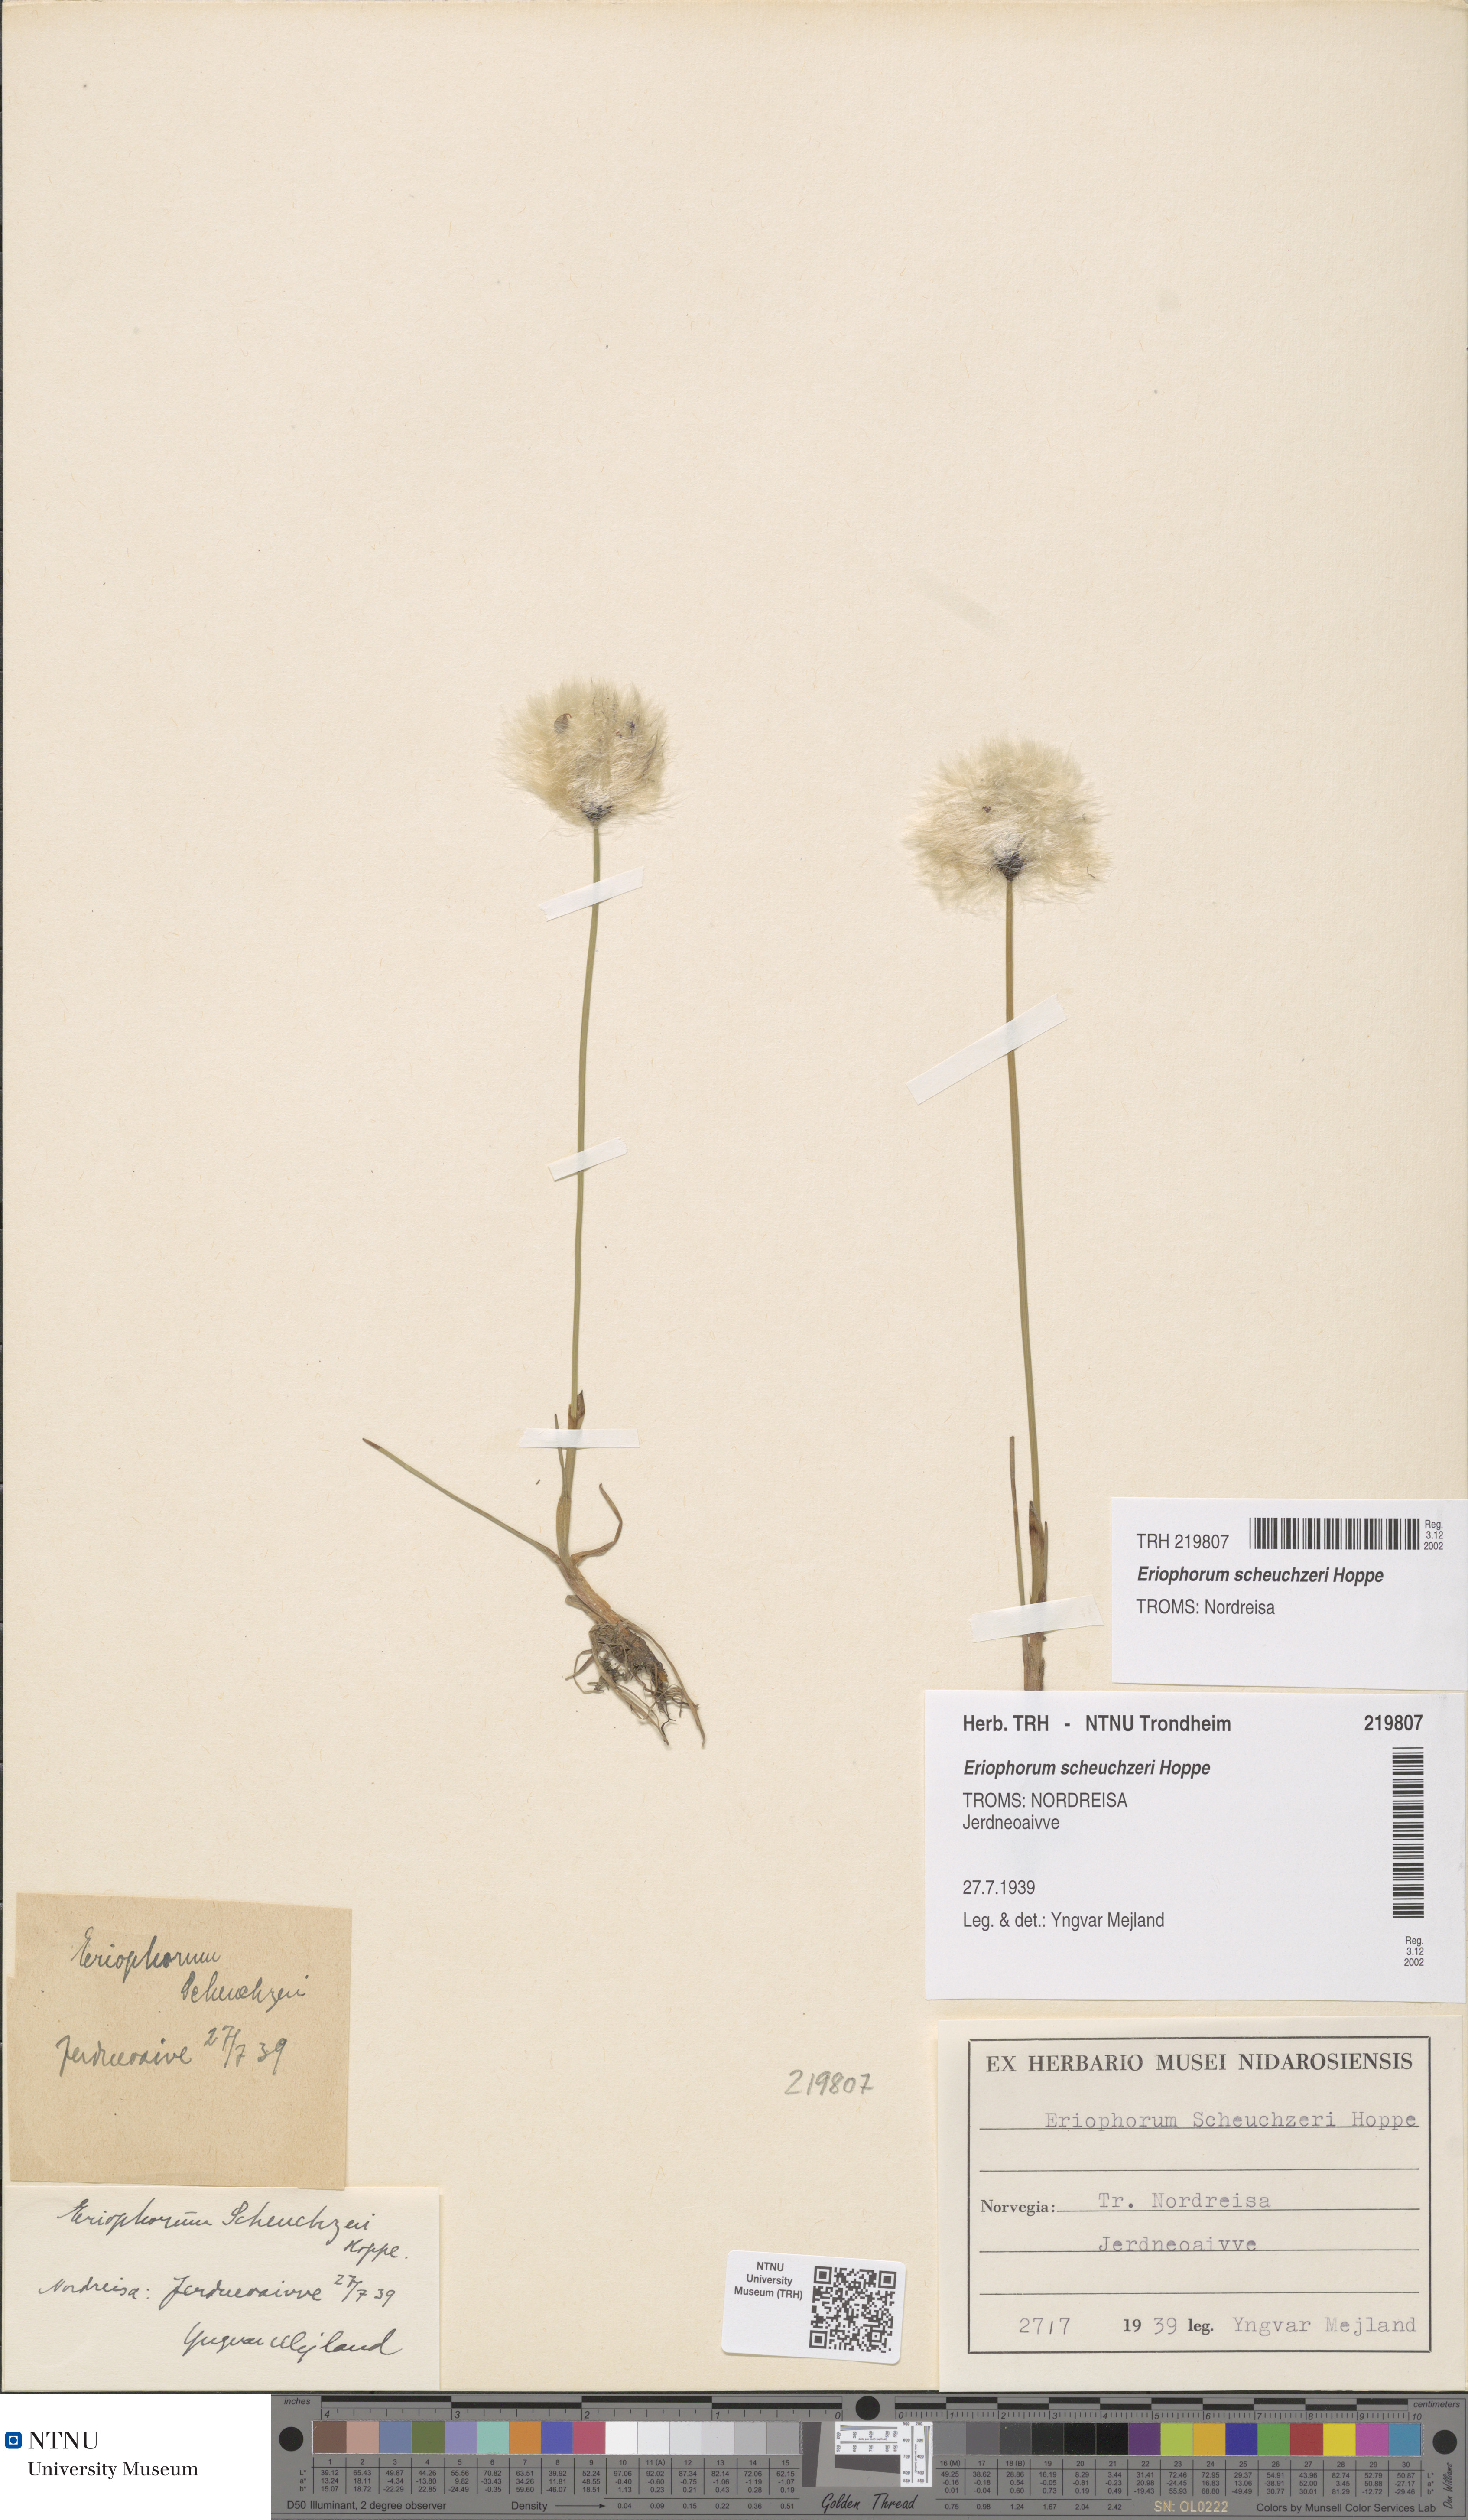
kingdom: Plantae
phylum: Tracheophyta
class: Liliopsida
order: Poales
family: Cyperaceae
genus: Eriophorum
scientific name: Eriophorum scheuchzeri
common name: Scheuchzer's cottongrass
